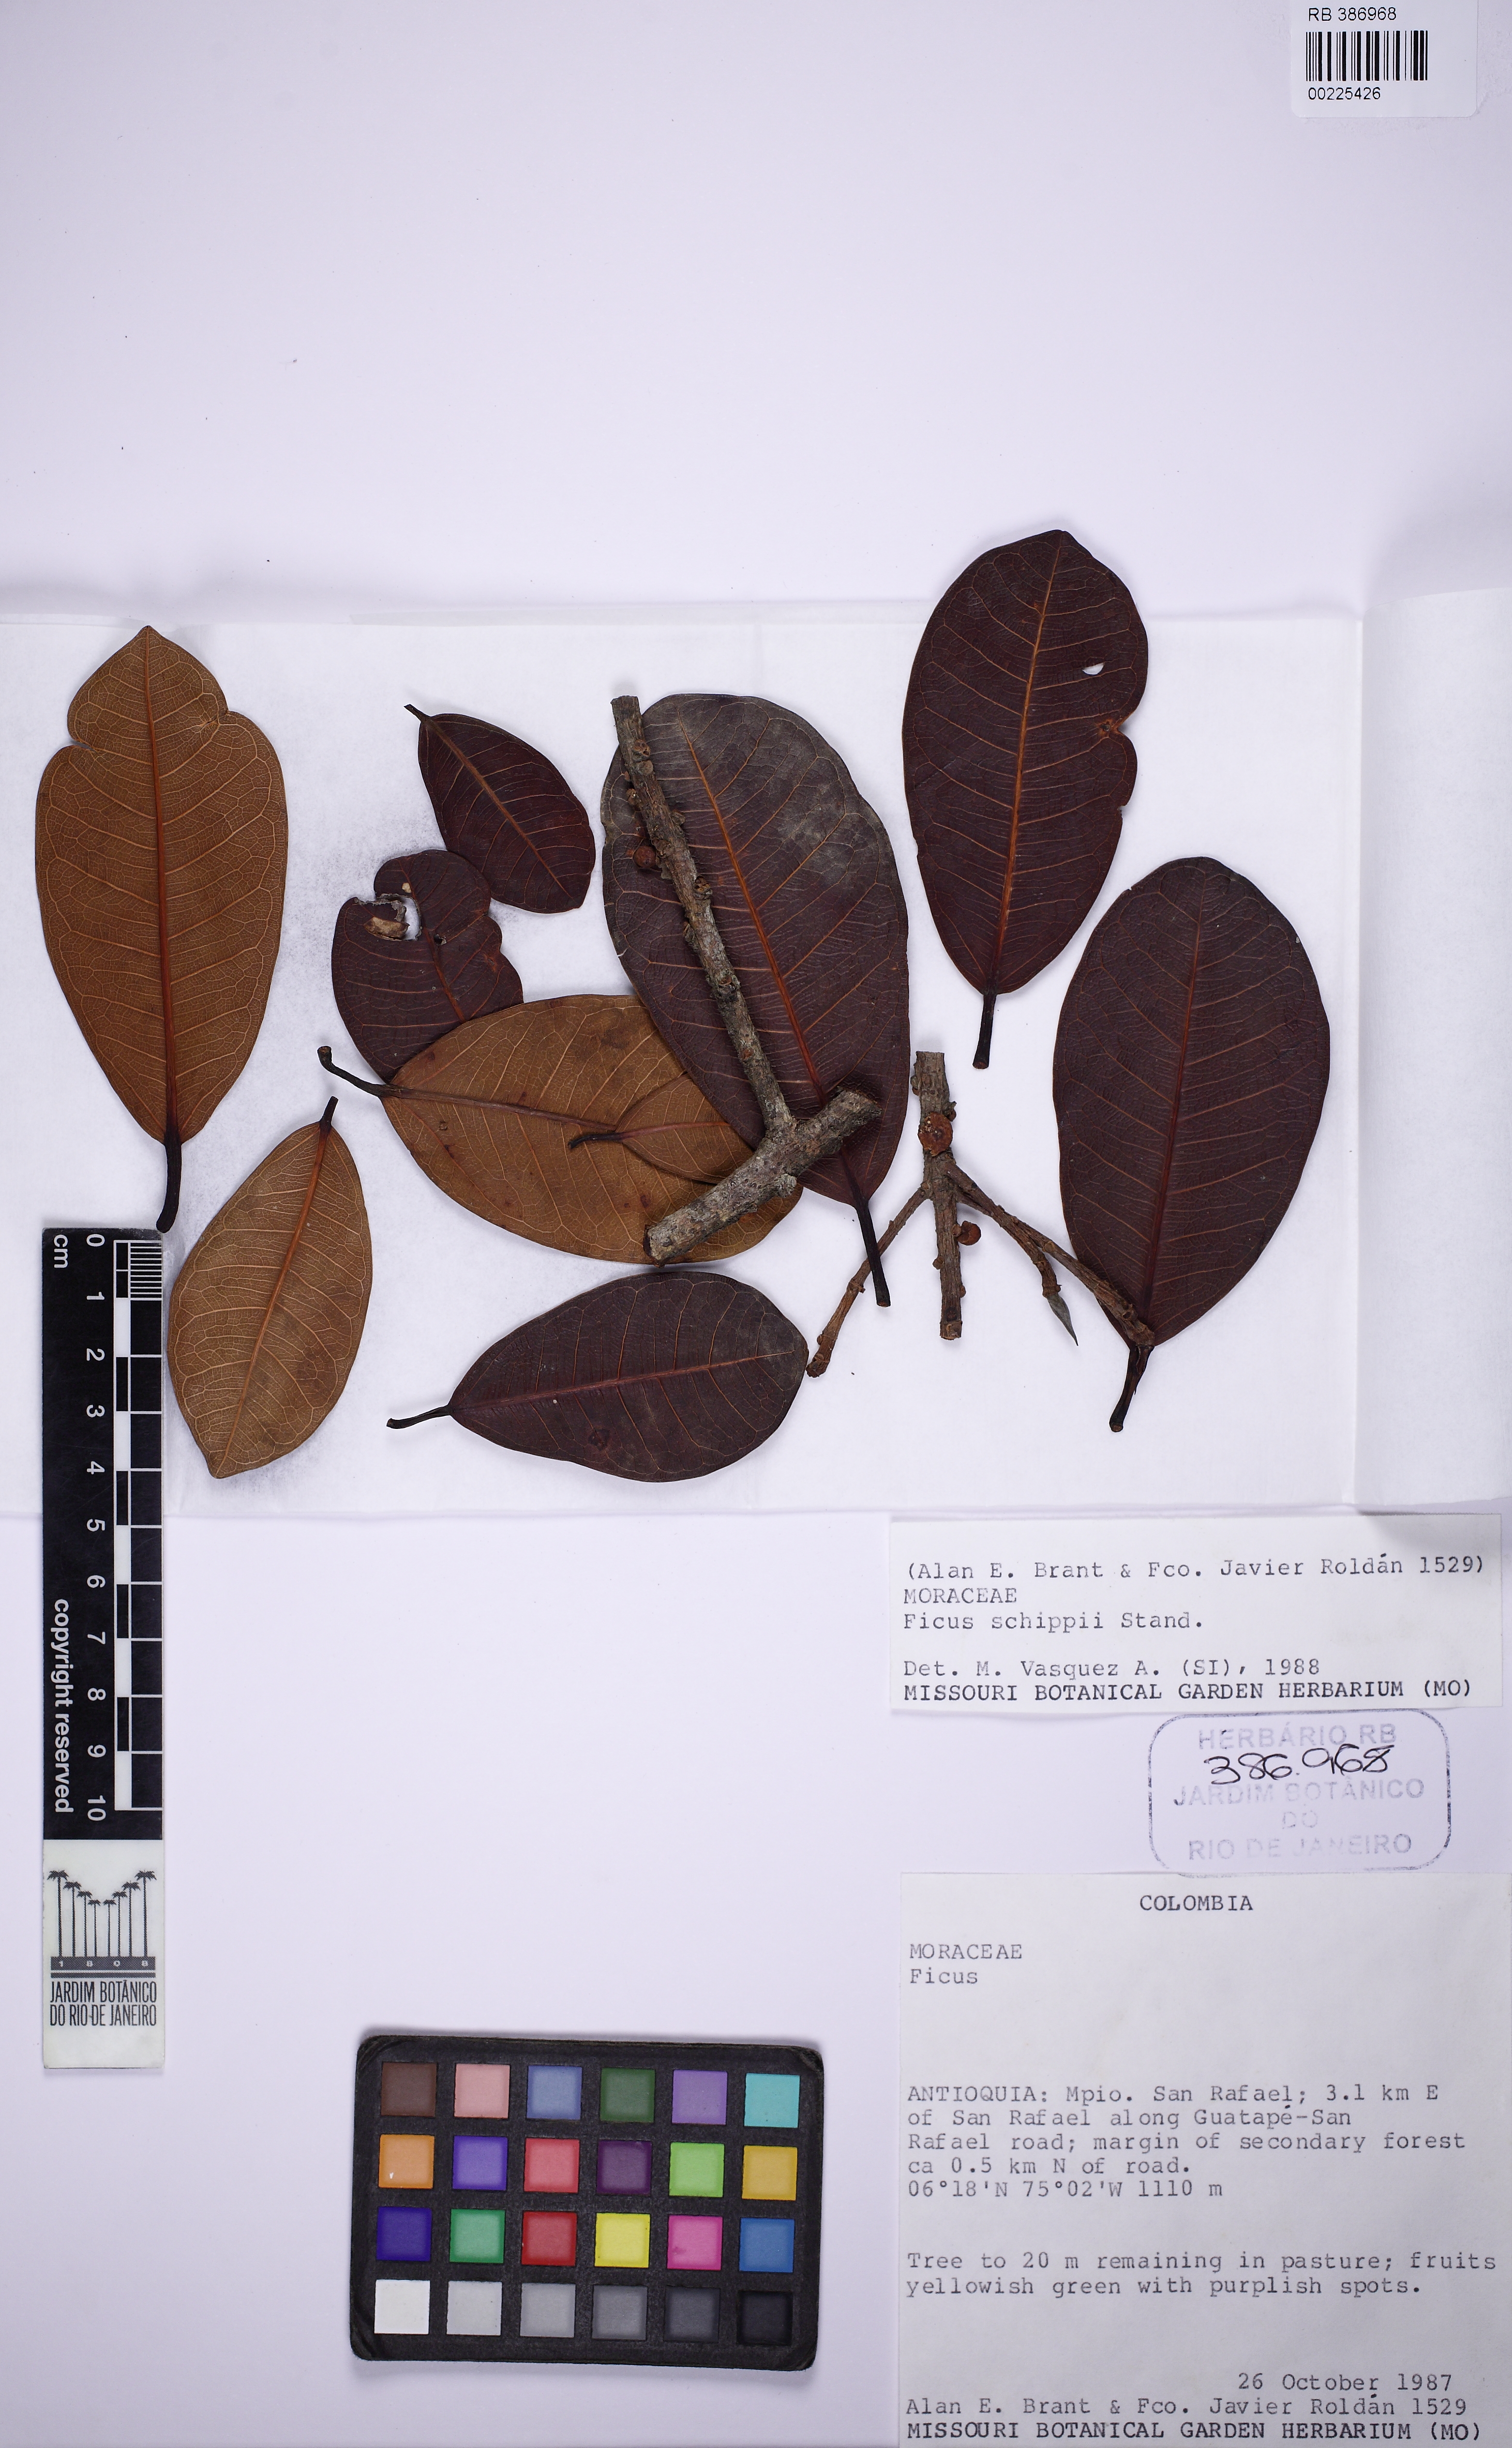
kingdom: Plantae
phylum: Tracheophyta
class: Magnoliopsida
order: Rosales
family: Moraceae
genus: Ficus
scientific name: Ficus schippii
